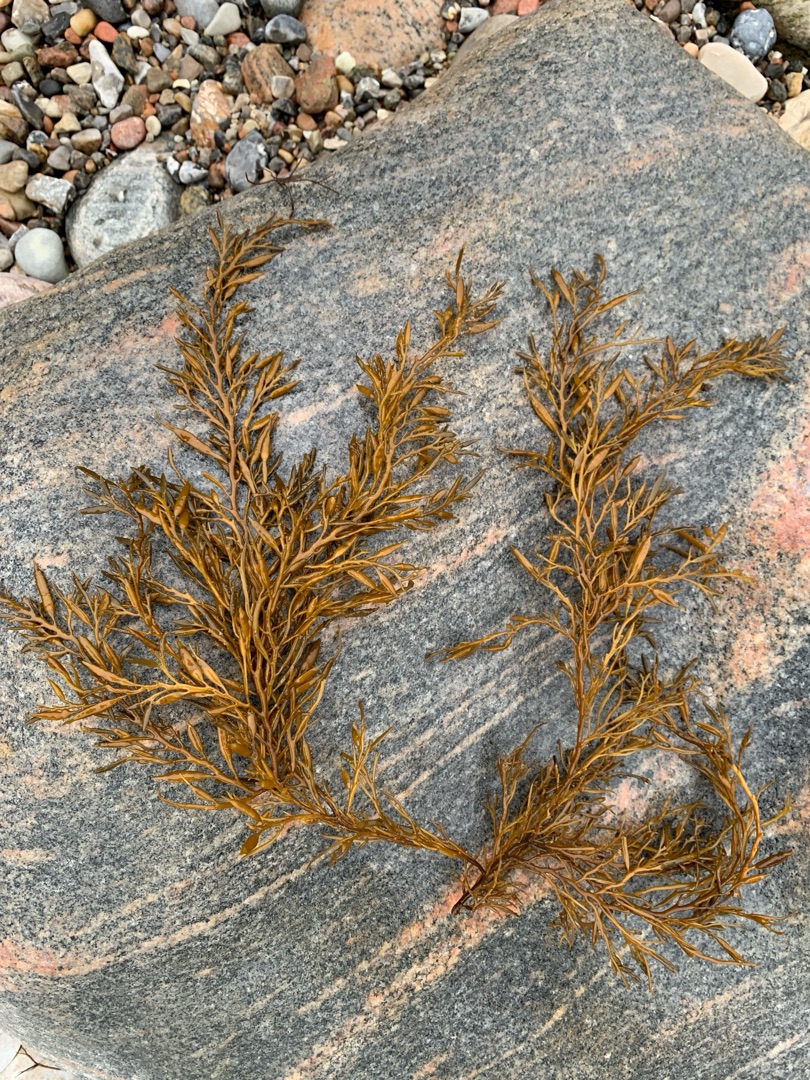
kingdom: Chromista
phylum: Ochrophyta
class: Phaeophyceae
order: Fucales
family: Sargassaceae
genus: Halidrys
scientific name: Halidrys siliquosa
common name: Skulpetang
